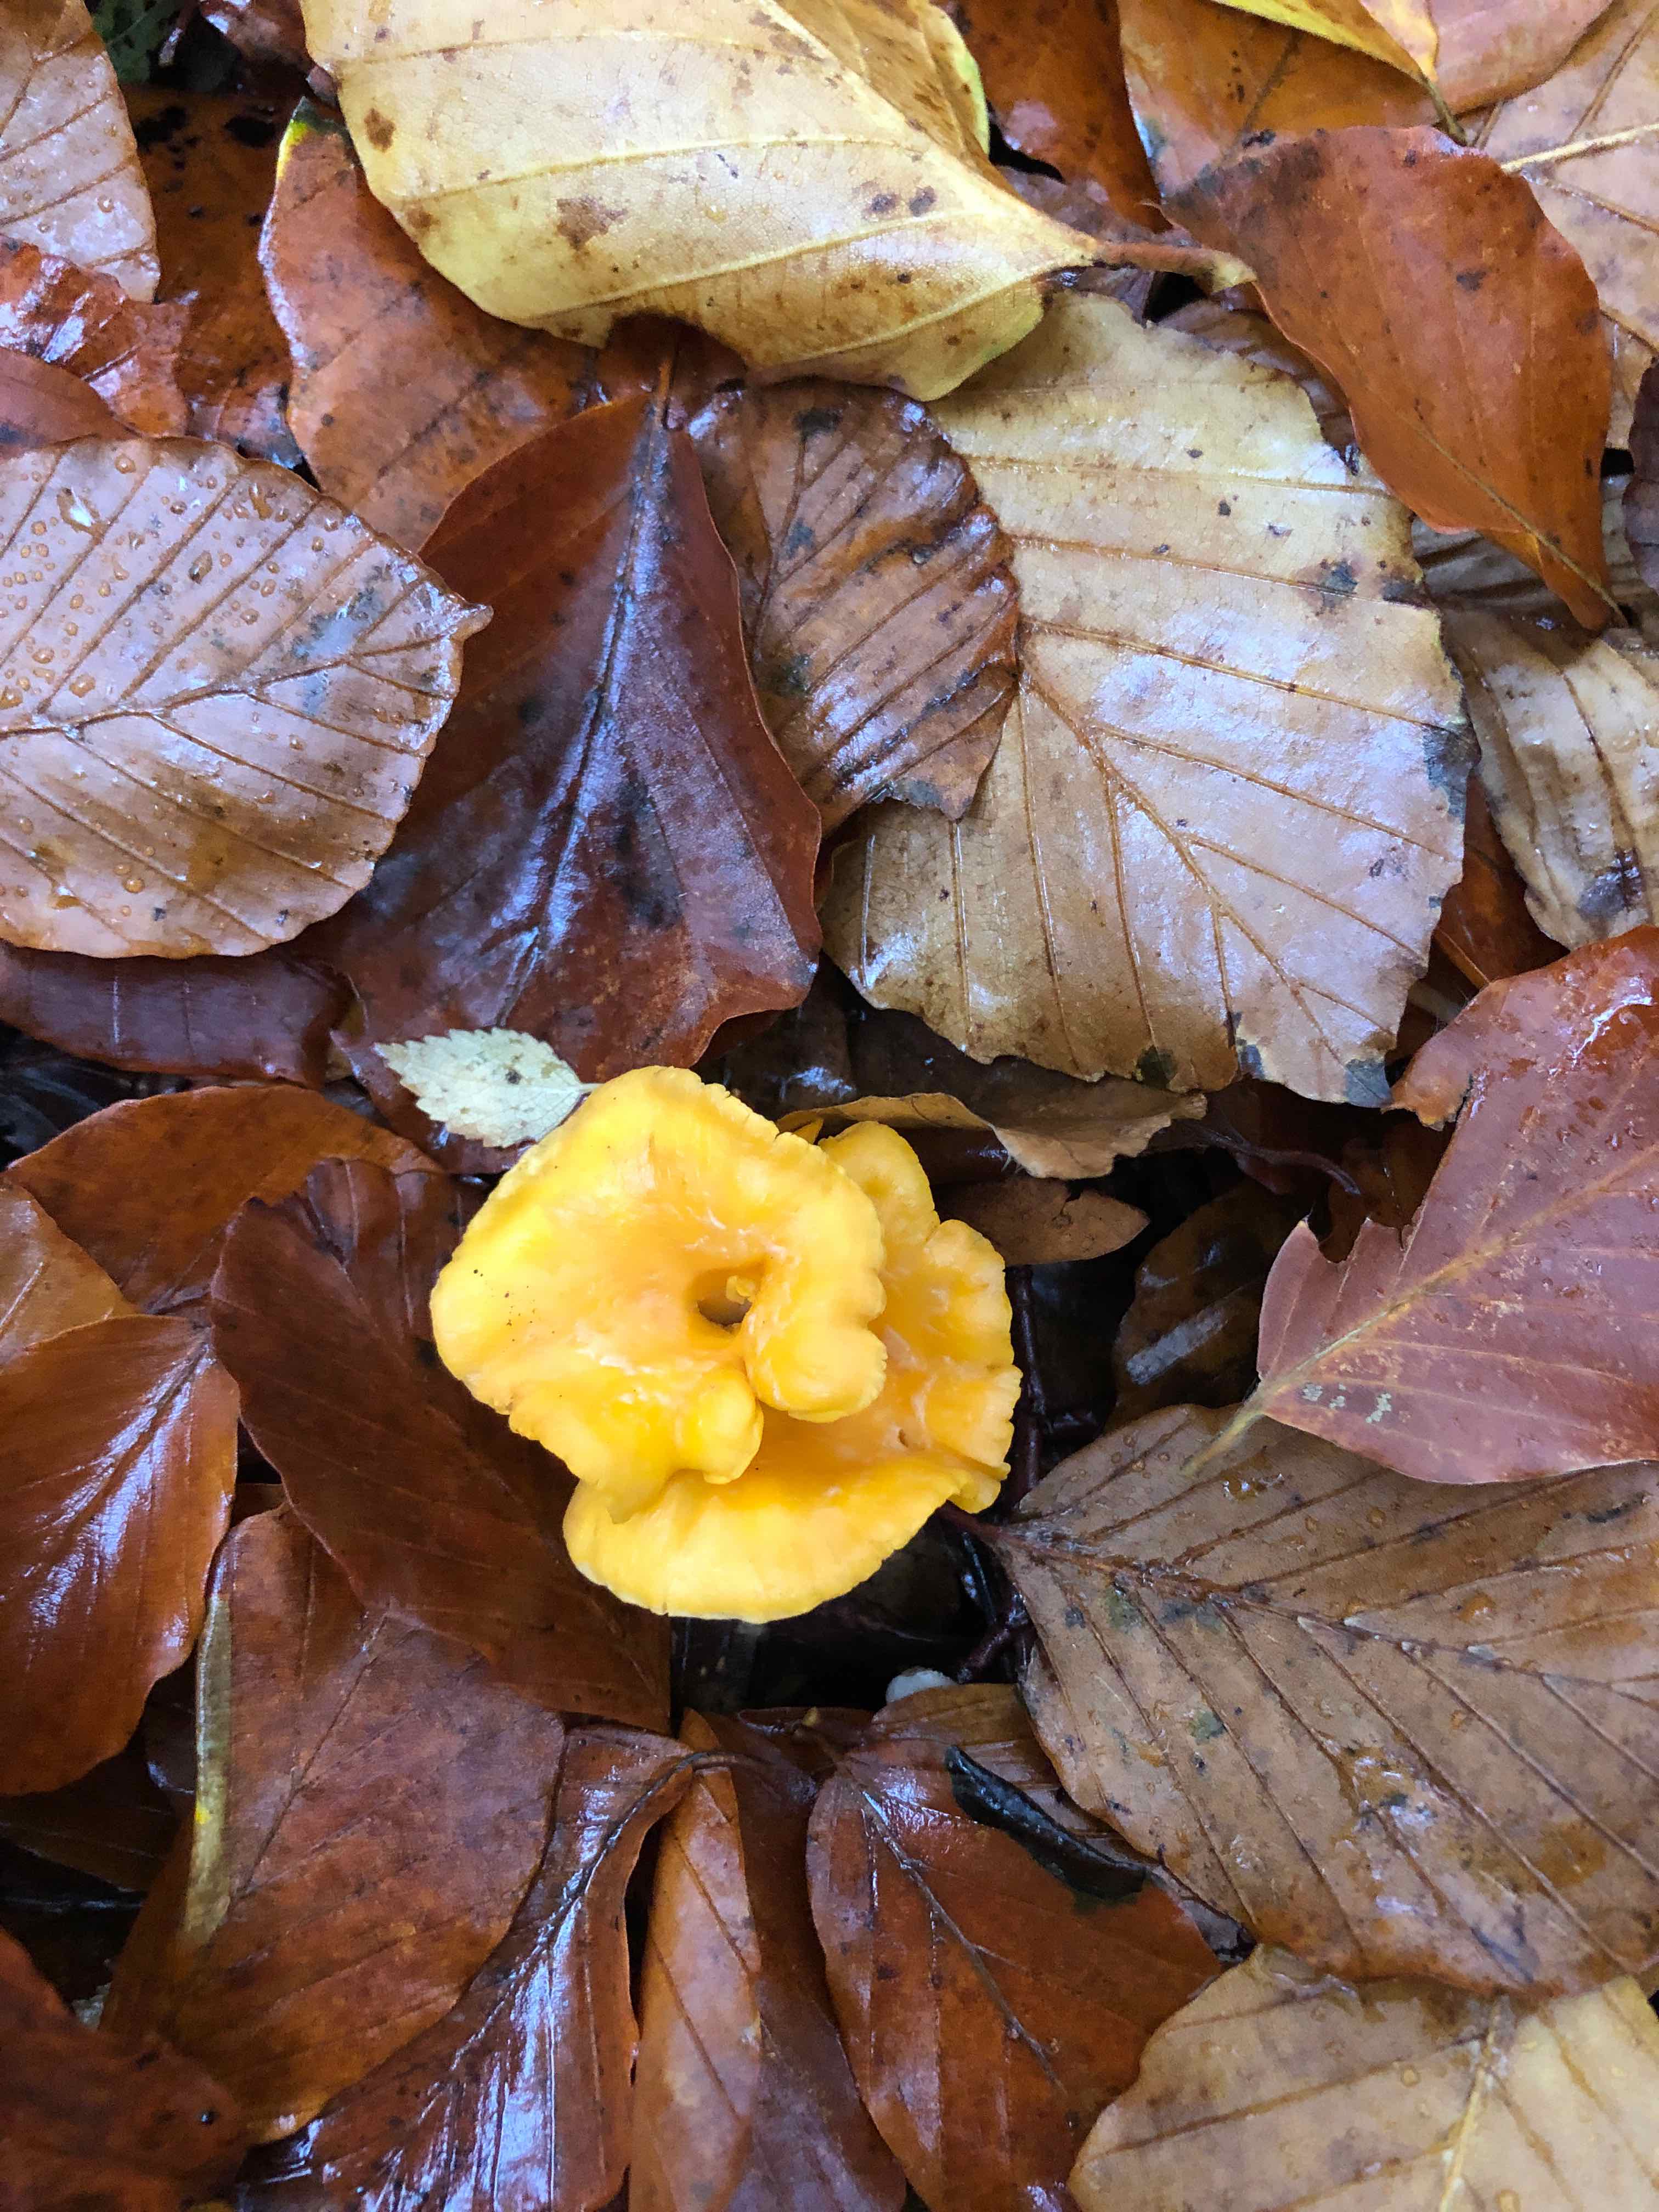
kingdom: Fungi
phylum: Basidiomycota
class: Agaricomycetes
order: Cantharellales
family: Hydnaceae
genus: Cantharellus
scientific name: Cantharellus cibarius
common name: almindelig kantarel
